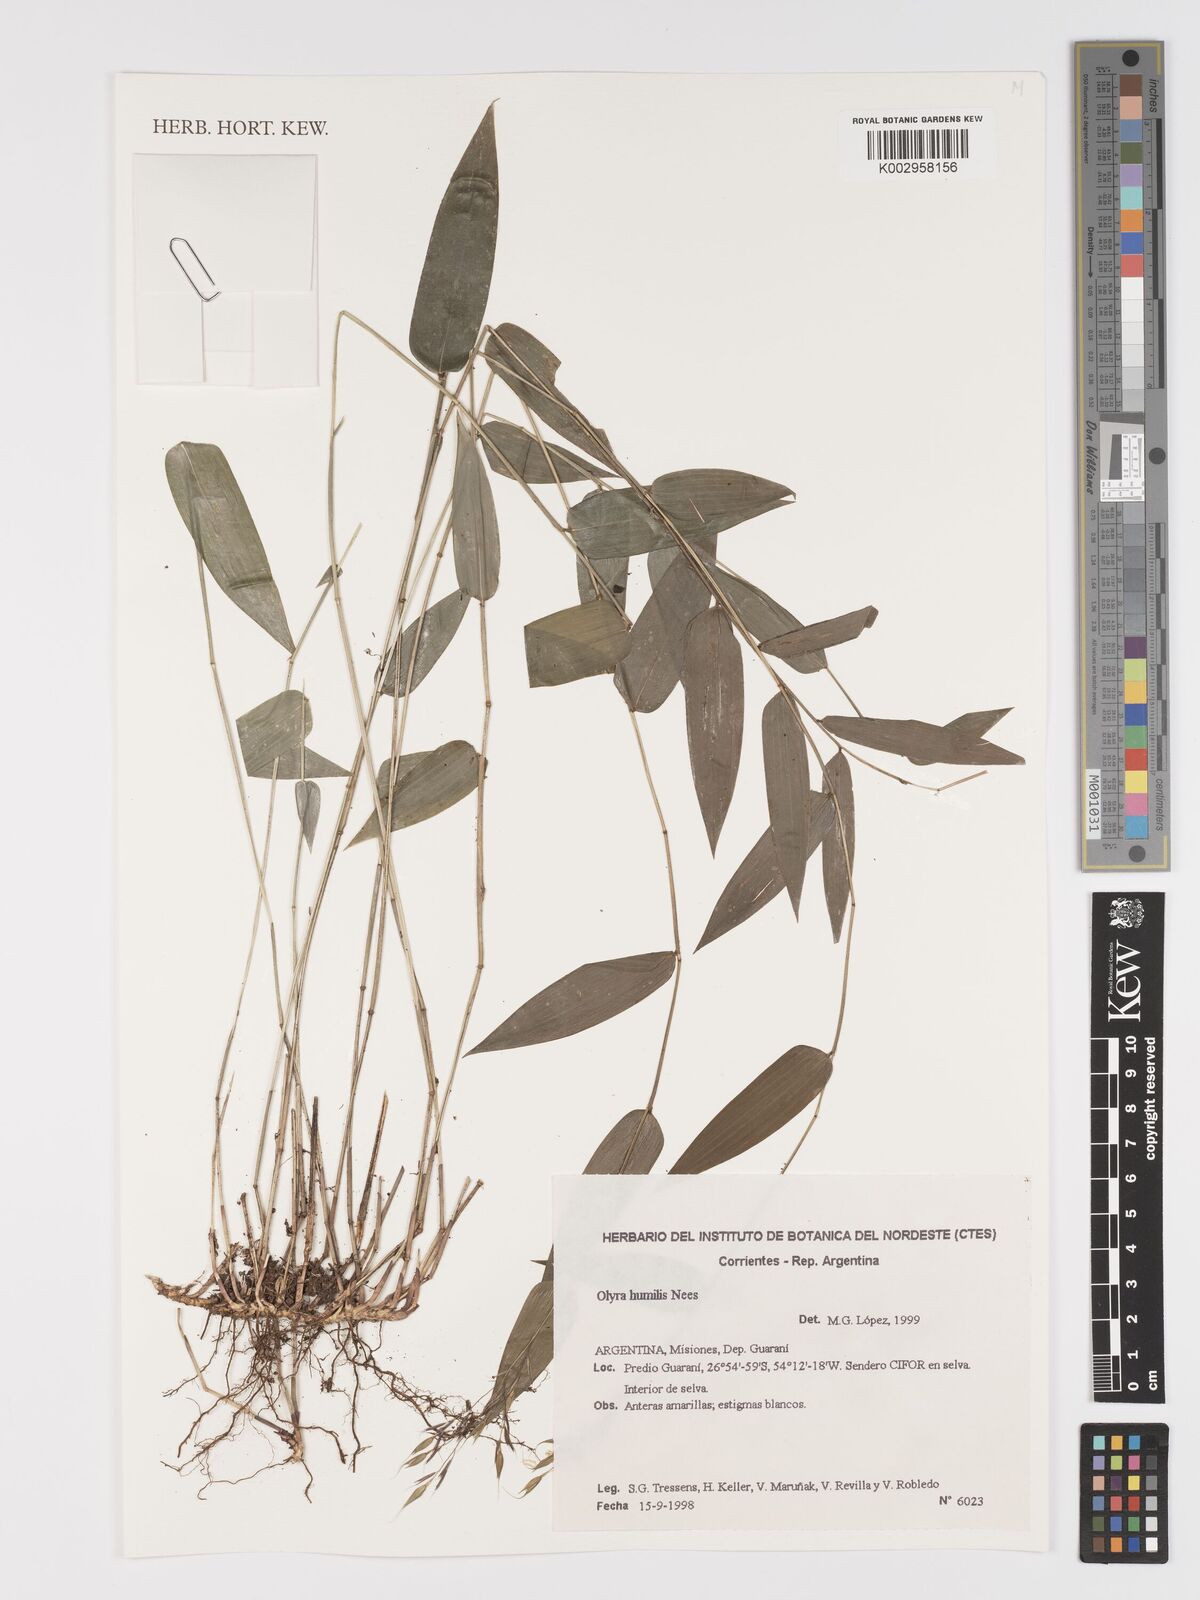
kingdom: Plantae
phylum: Tracheophyta
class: Liliopsida
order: Poales
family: Poaceae
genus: Olyra
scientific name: Olyra humilis
